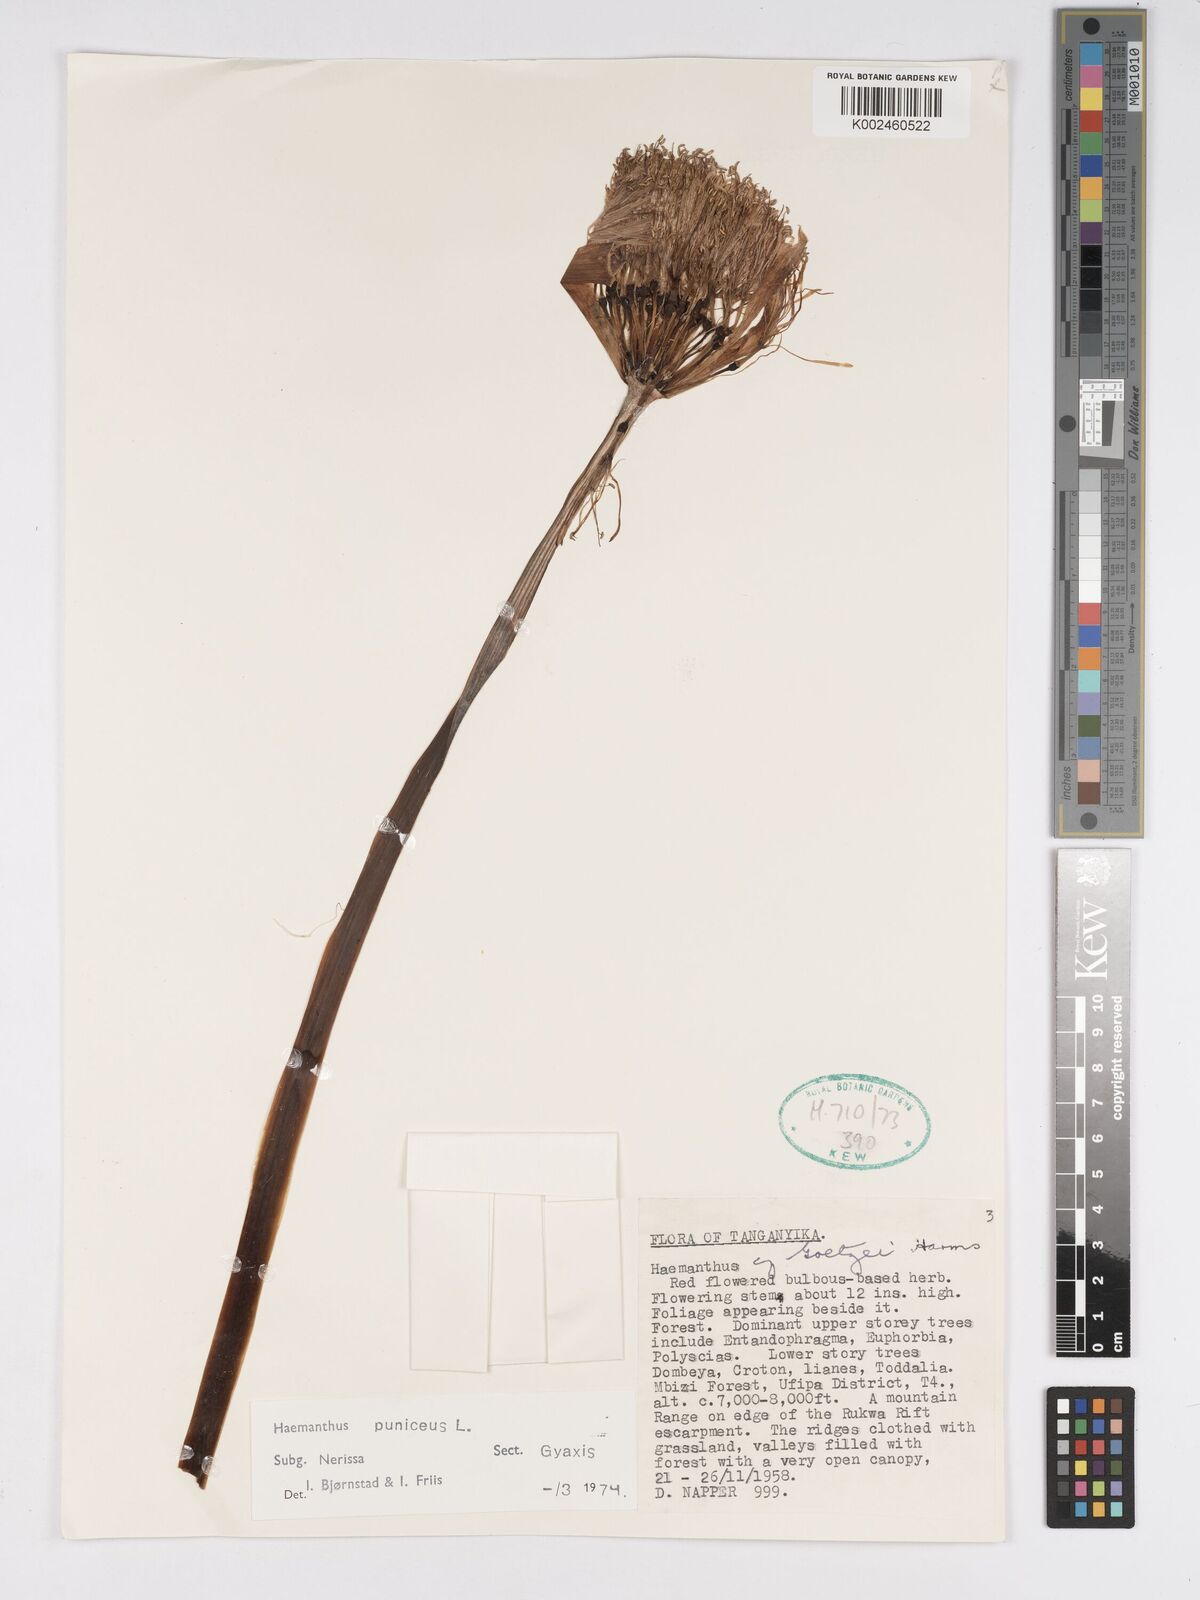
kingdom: Plantae
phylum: Tracheophyta
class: Liliopsida
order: Asparagales
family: Amaryllidaceae
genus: Scadoxus
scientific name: Scadoxus puniceus
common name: Royal-paintbrush
